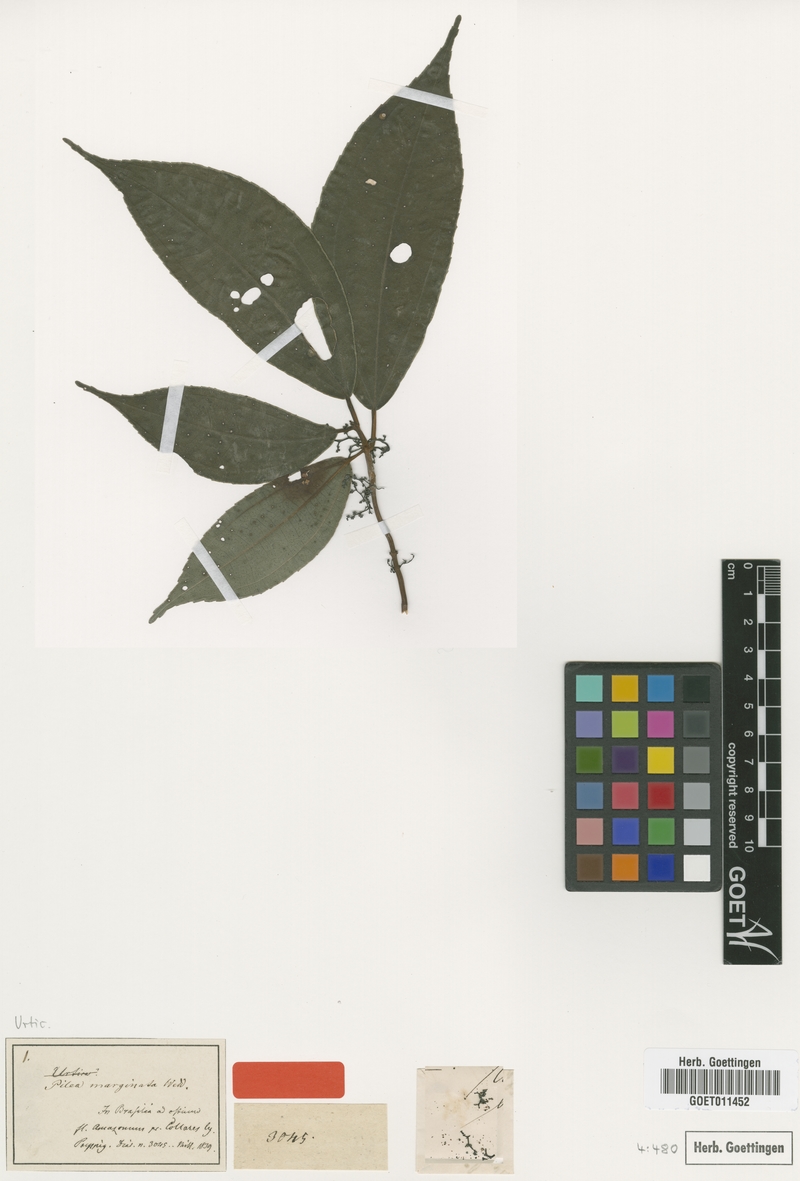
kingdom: Plantae
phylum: Tracheophyta
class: Magnoliopsida
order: Rosales
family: Urticaceae
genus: Pilea
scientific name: Pilea marginata
